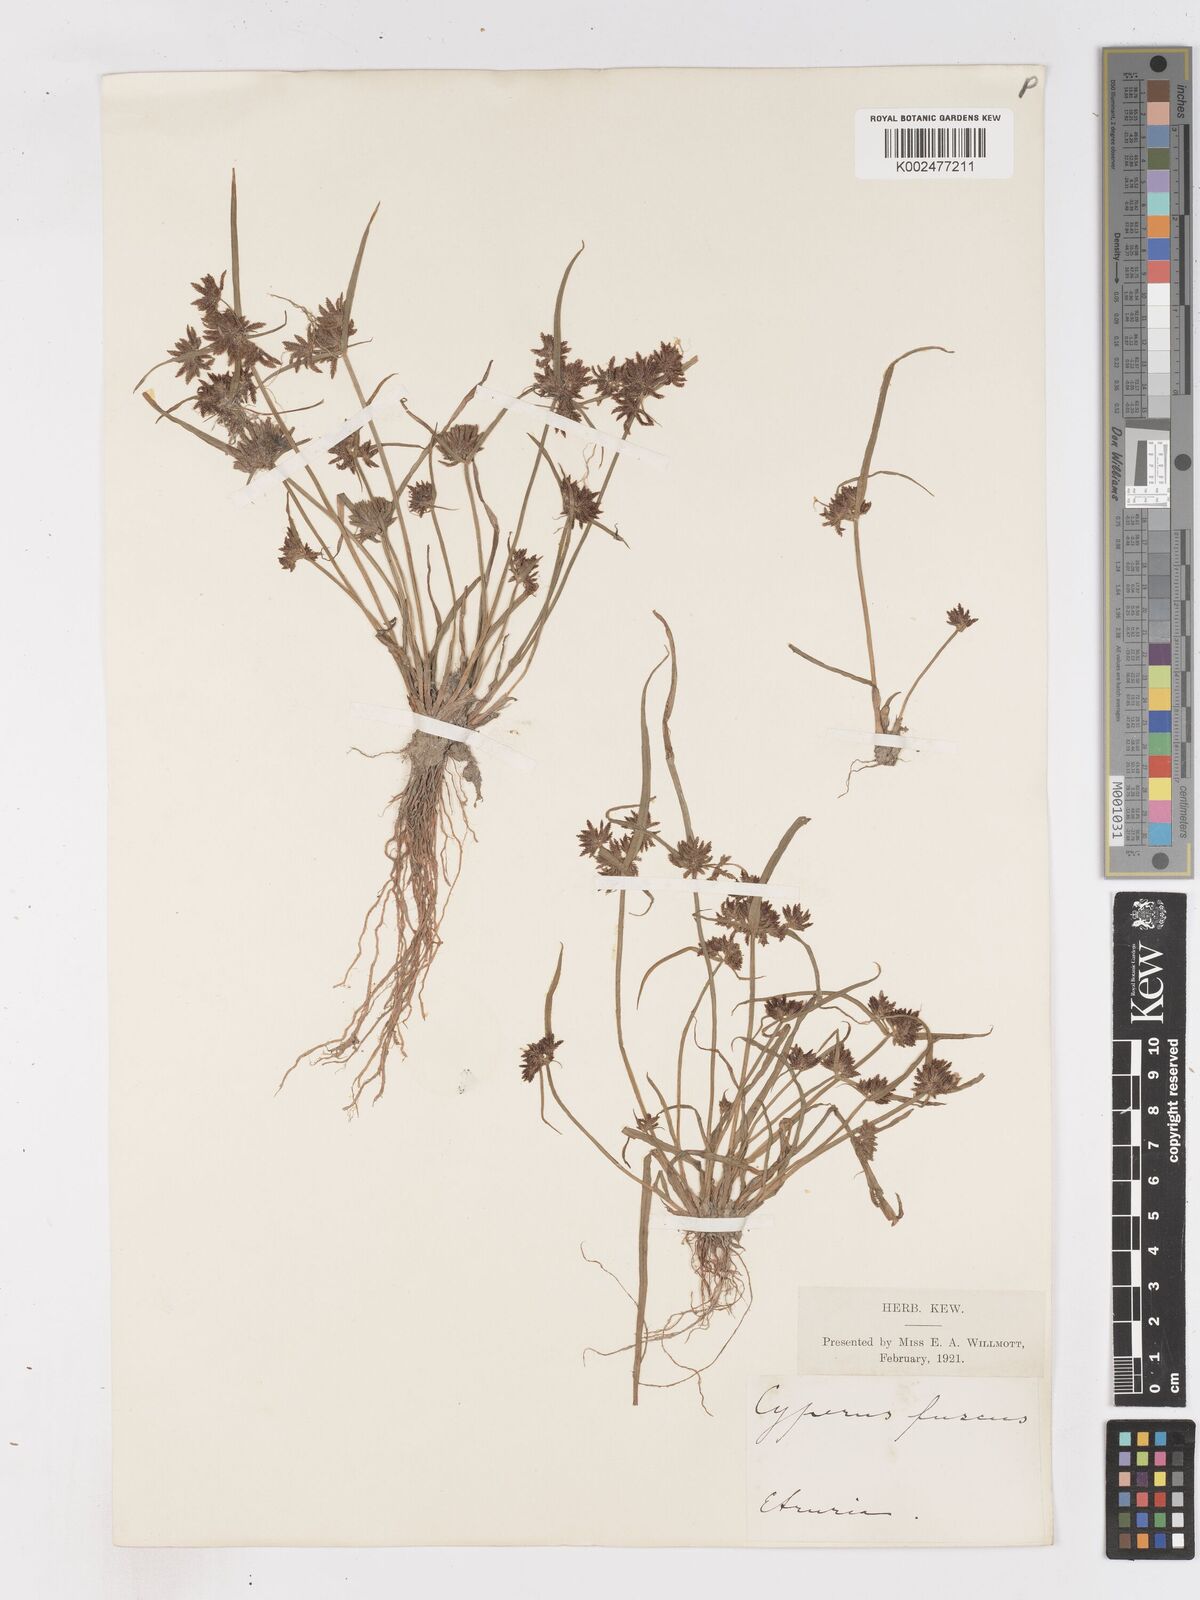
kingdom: Plantae
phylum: Tracheophyta
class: Liliopsida
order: Poales
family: Cyperaceae
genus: Cyperus
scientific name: Cyperus fuscus
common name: Brown galingale
